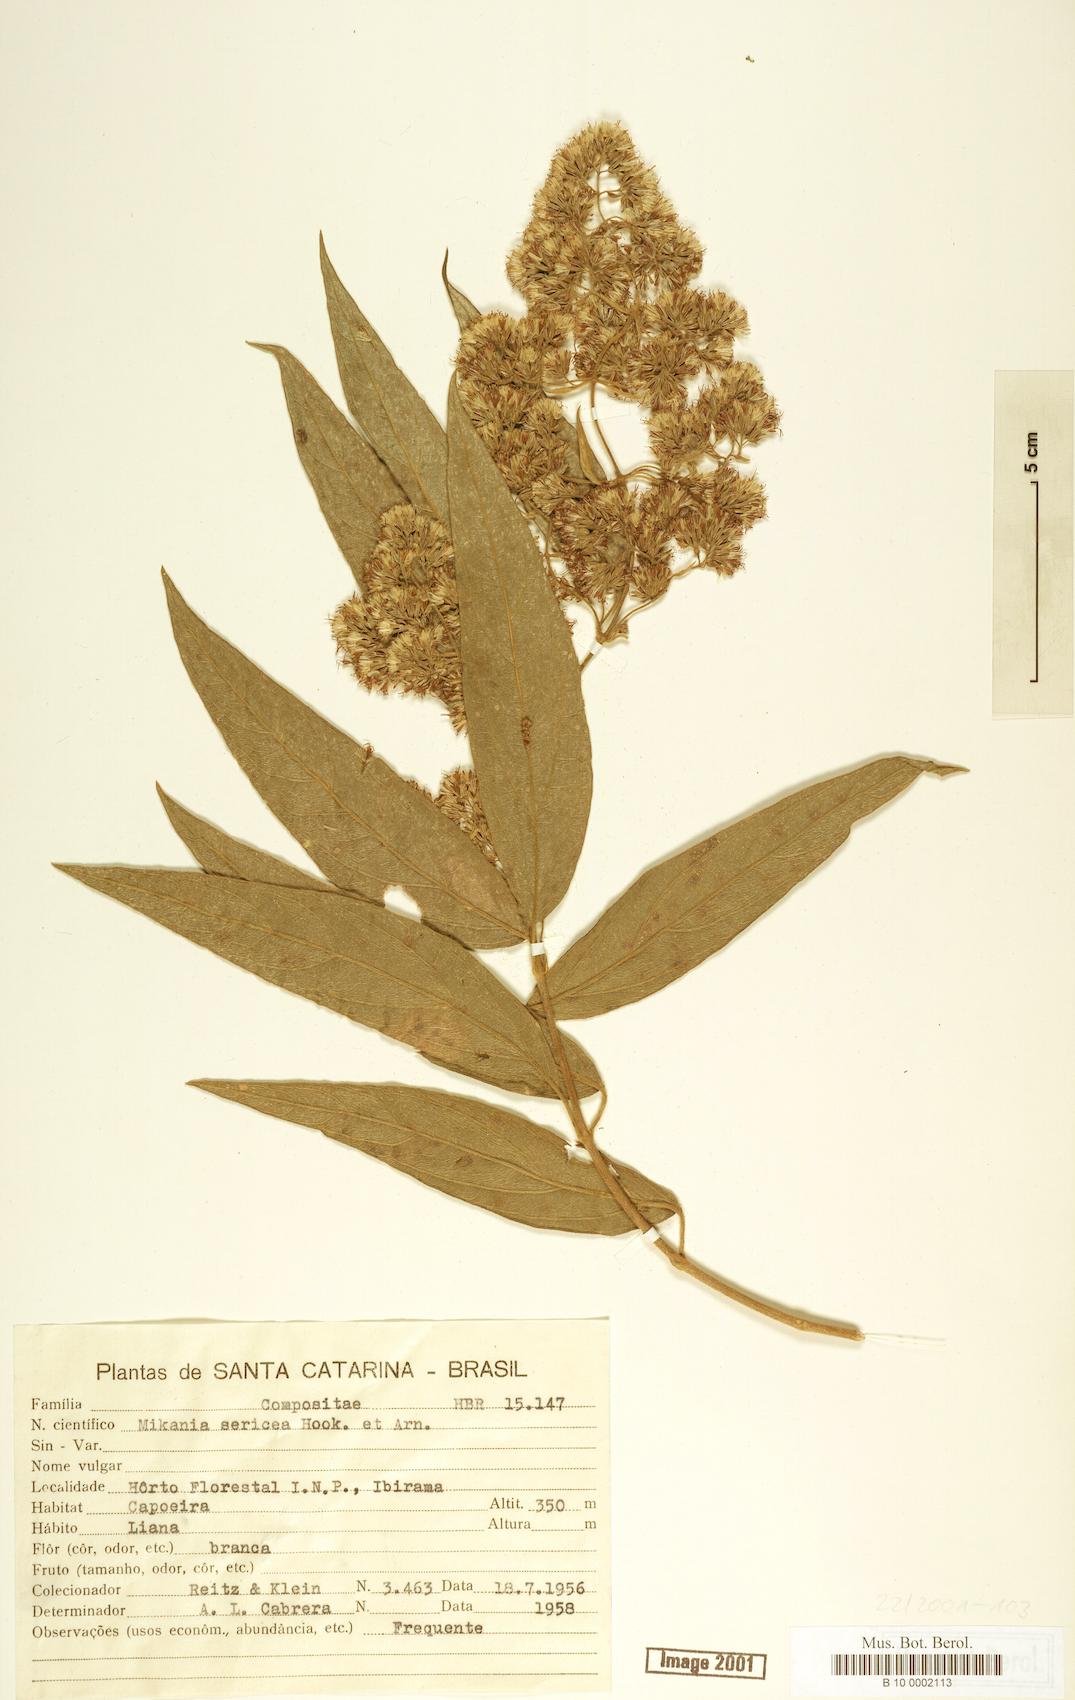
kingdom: Plantae
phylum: Tracheophyta
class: Magnoliopsida
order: Asterales
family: Asteraceae
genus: Mikania
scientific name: Mikania sericea
